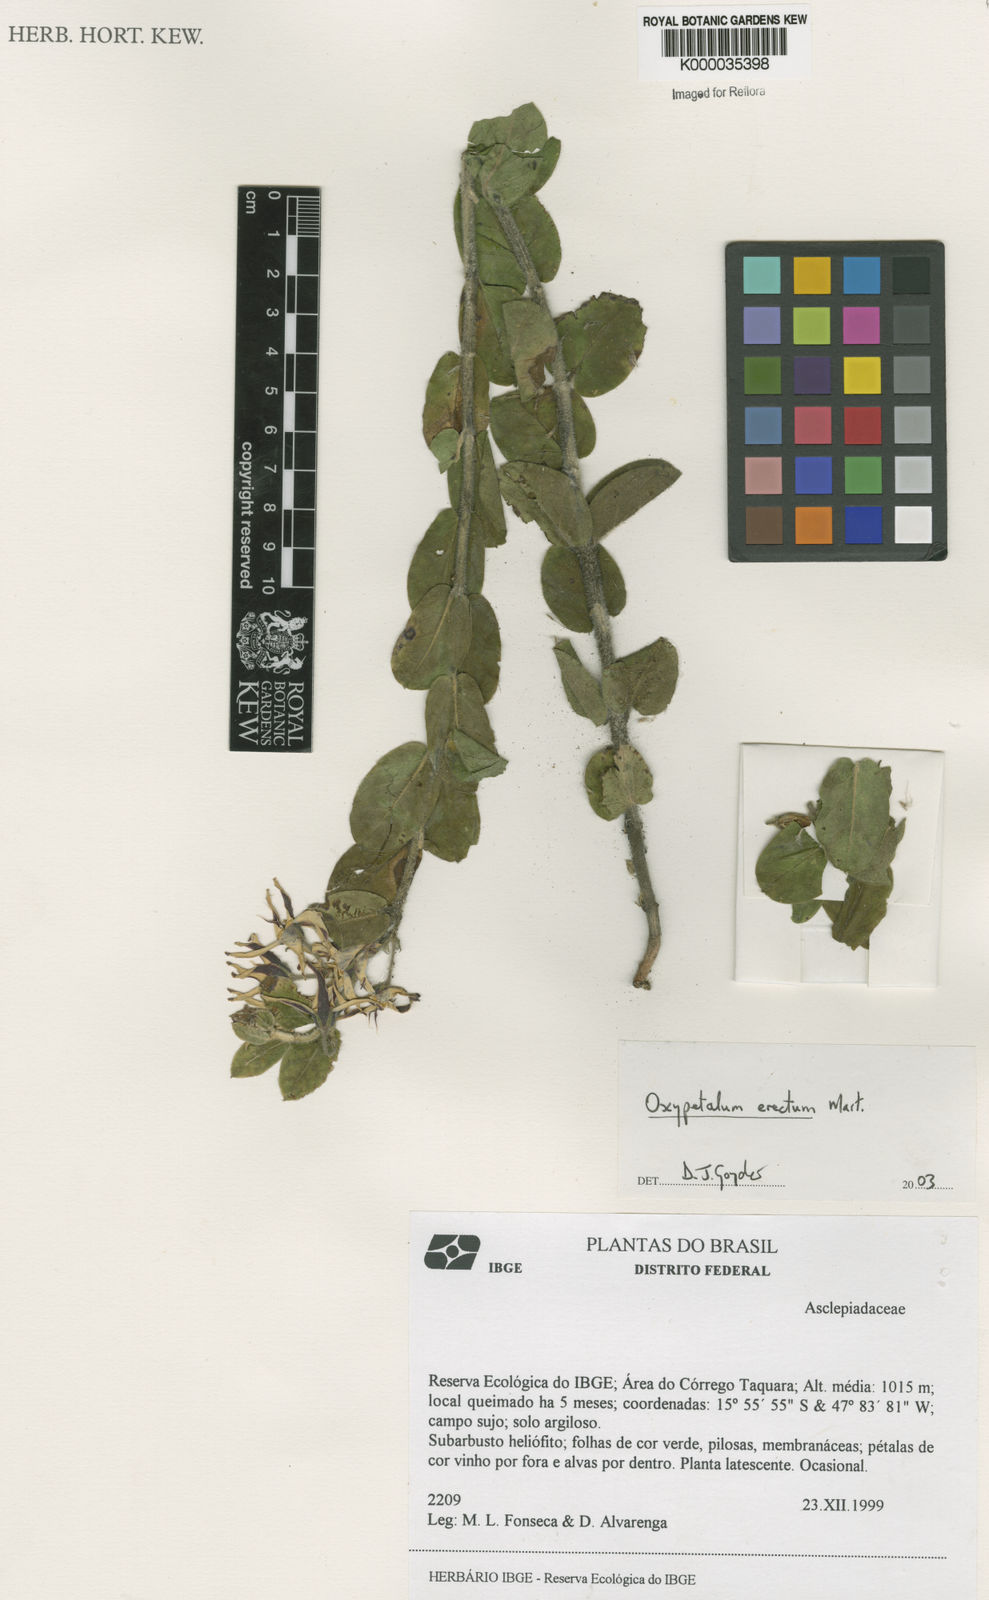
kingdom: Plantae
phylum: Tracheophyta
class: Magnoliopsida
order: Gentianales
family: Apocynaceae
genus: Oxypetalum
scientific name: Oxypetalum erectum
